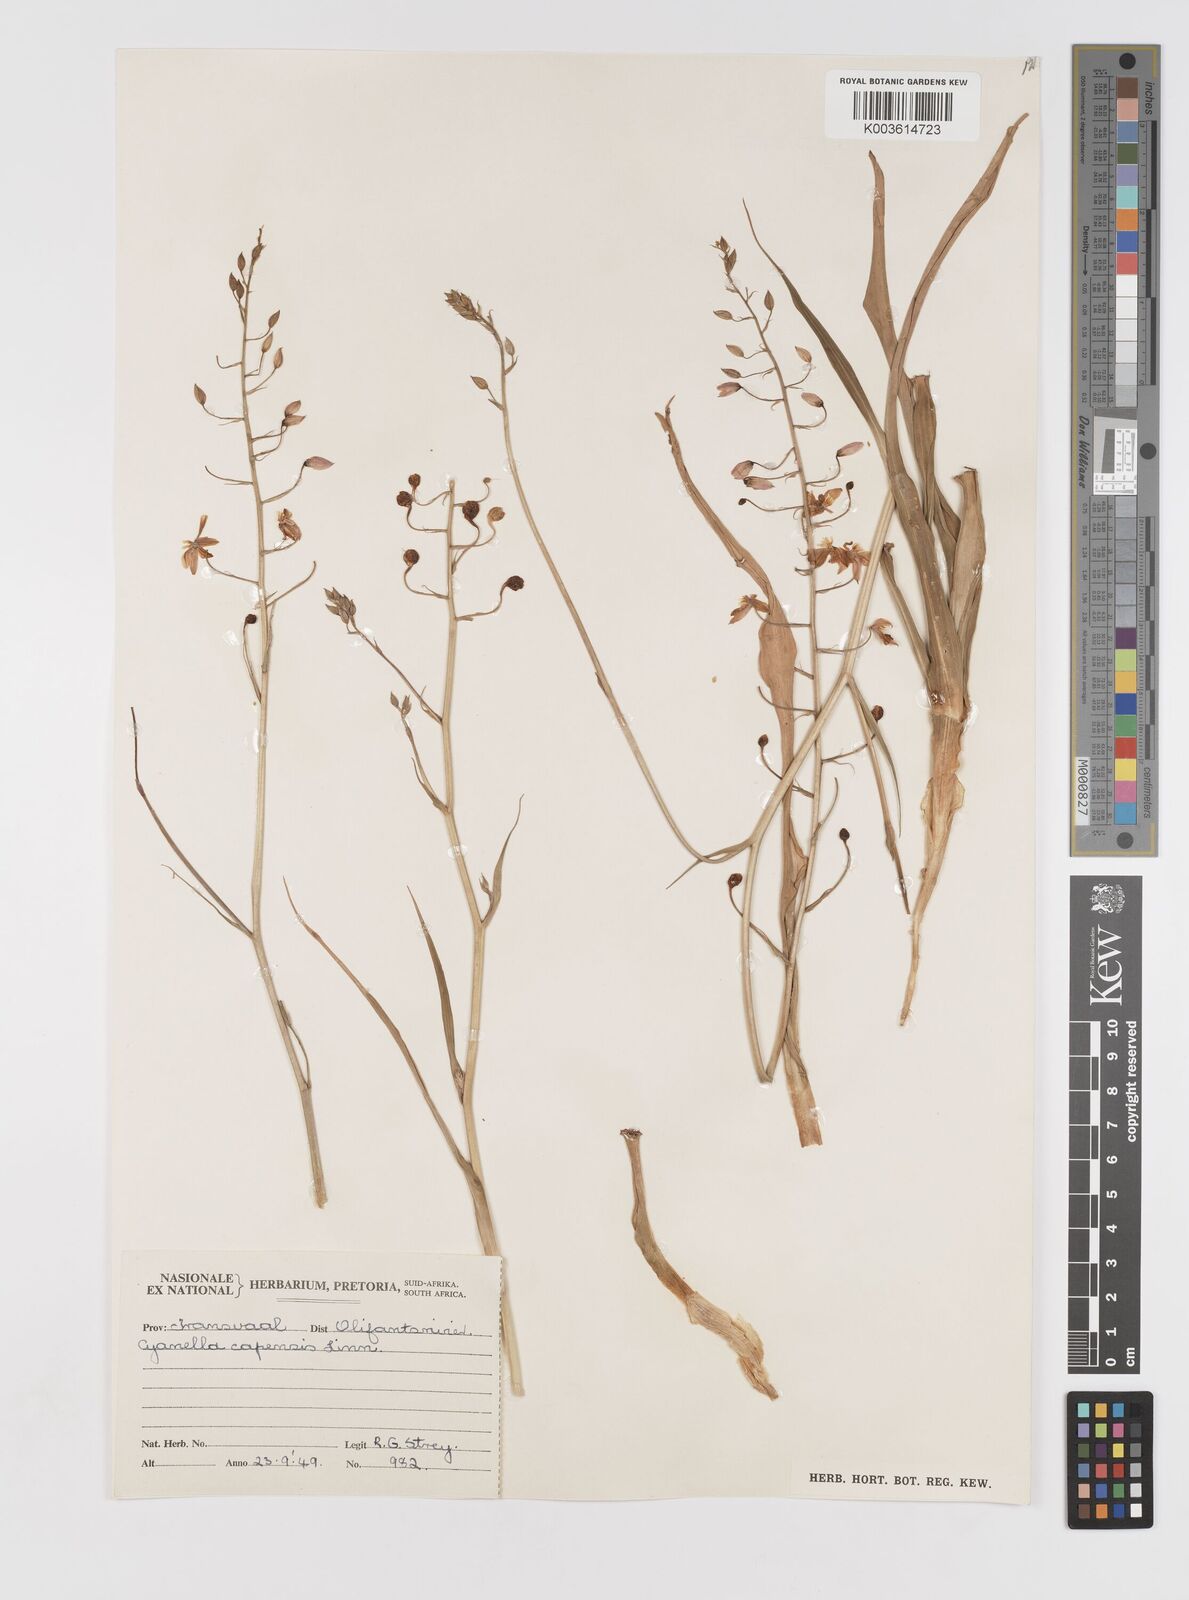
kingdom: Plantae
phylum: Tracheophyta
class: Liliopsida
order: Asparagales
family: Tecophilaeaceae
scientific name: Tecophilaeaceae
